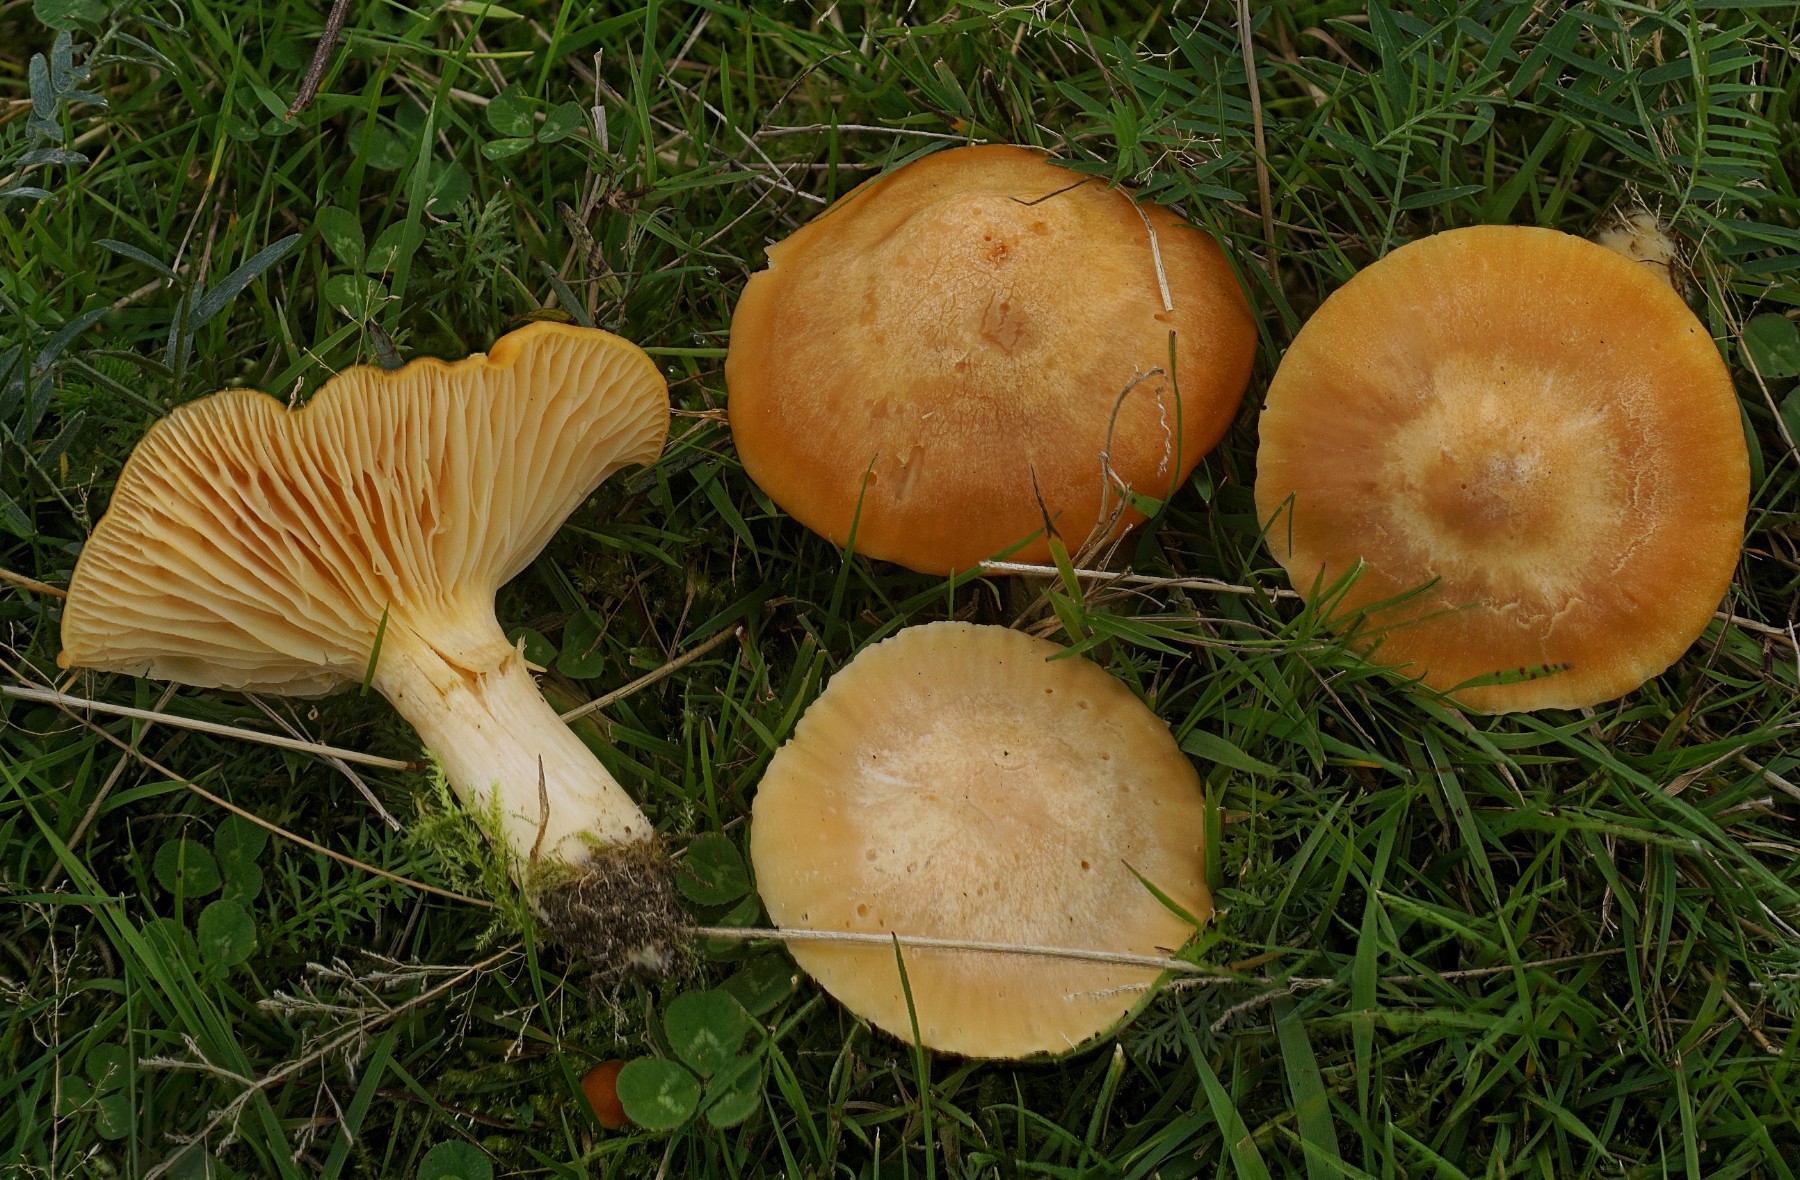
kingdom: Fungi
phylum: Basidiomycota
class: Agaricomycetes
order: Agaricales
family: Hygrophoraceae
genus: Cuphophyllus
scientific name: Cuphophyllus pratensis
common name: eng-vokshat
